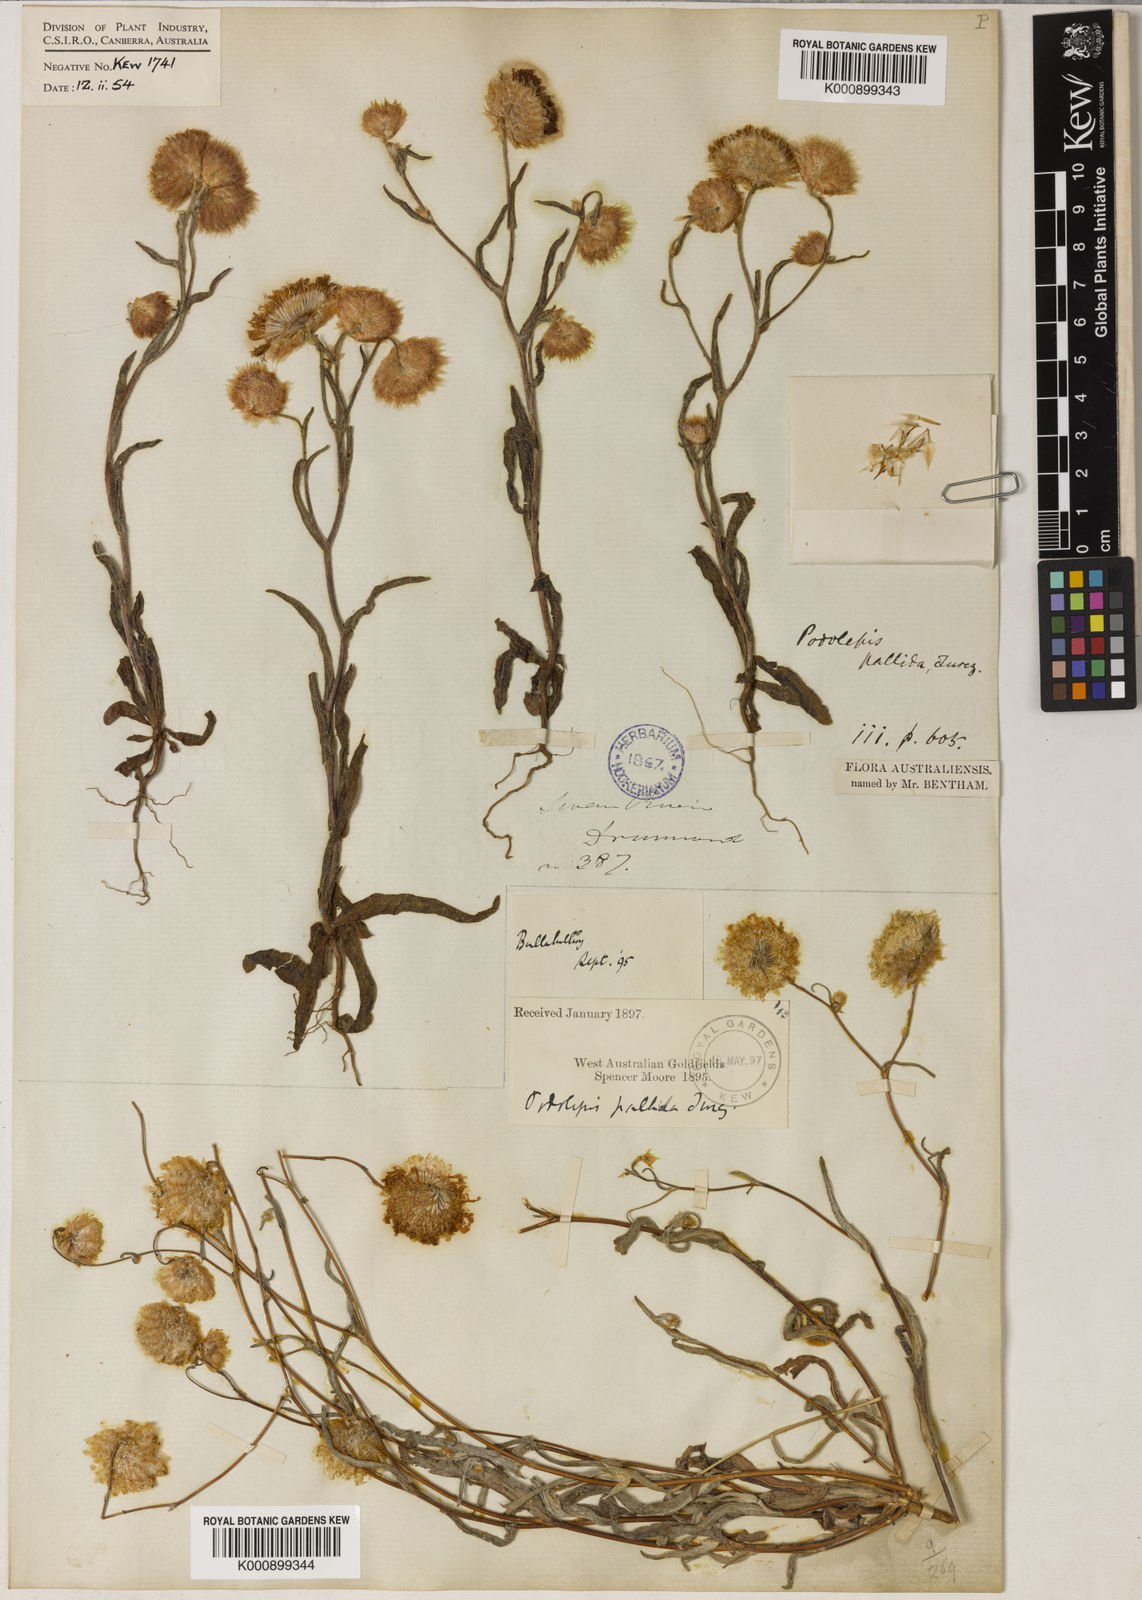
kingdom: Plantae
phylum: Tracheophyta
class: Magnoliopsida
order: Asterales
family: Asteraceae
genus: Podolepis
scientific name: Podolepis aristata
